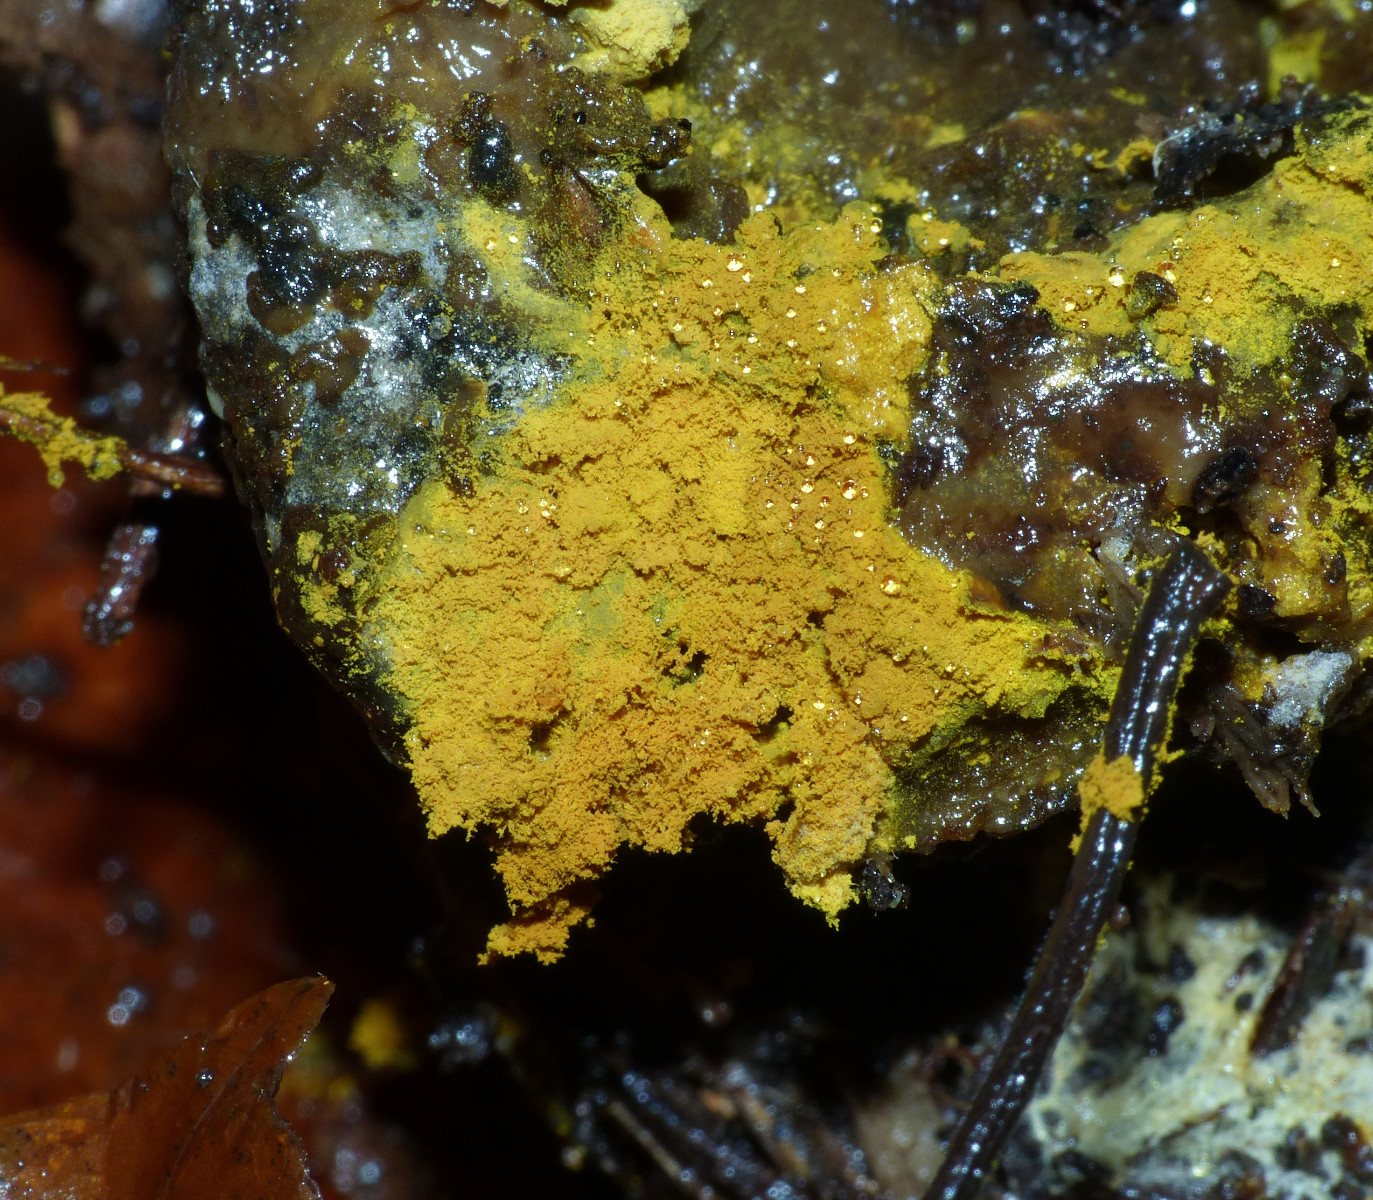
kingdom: Fungi
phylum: Ascomycota
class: Sordariomycetes
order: Hypocreales
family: Hypocreaceae
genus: Hypomyces
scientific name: Hypomyces
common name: snylteskorpe
